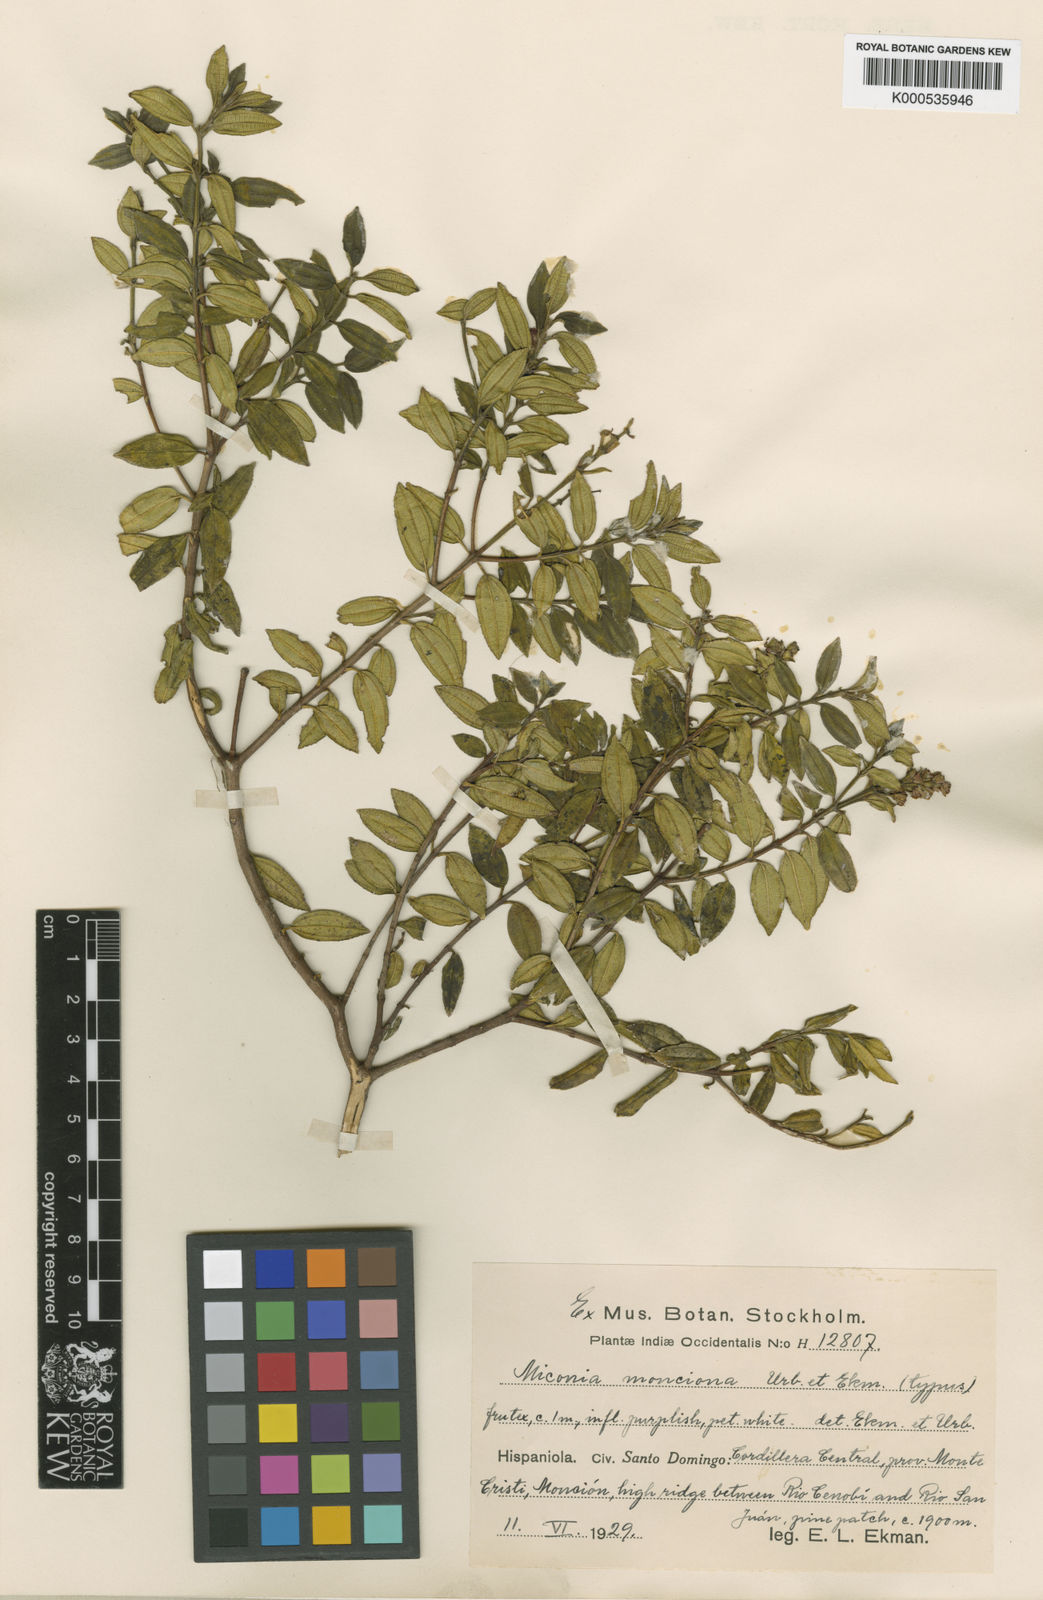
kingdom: Plantae
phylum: Tracheophyta
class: Magnoliopsida
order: Myrtales
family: Melastomataceae
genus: Miconia
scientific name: Miconia monciona
